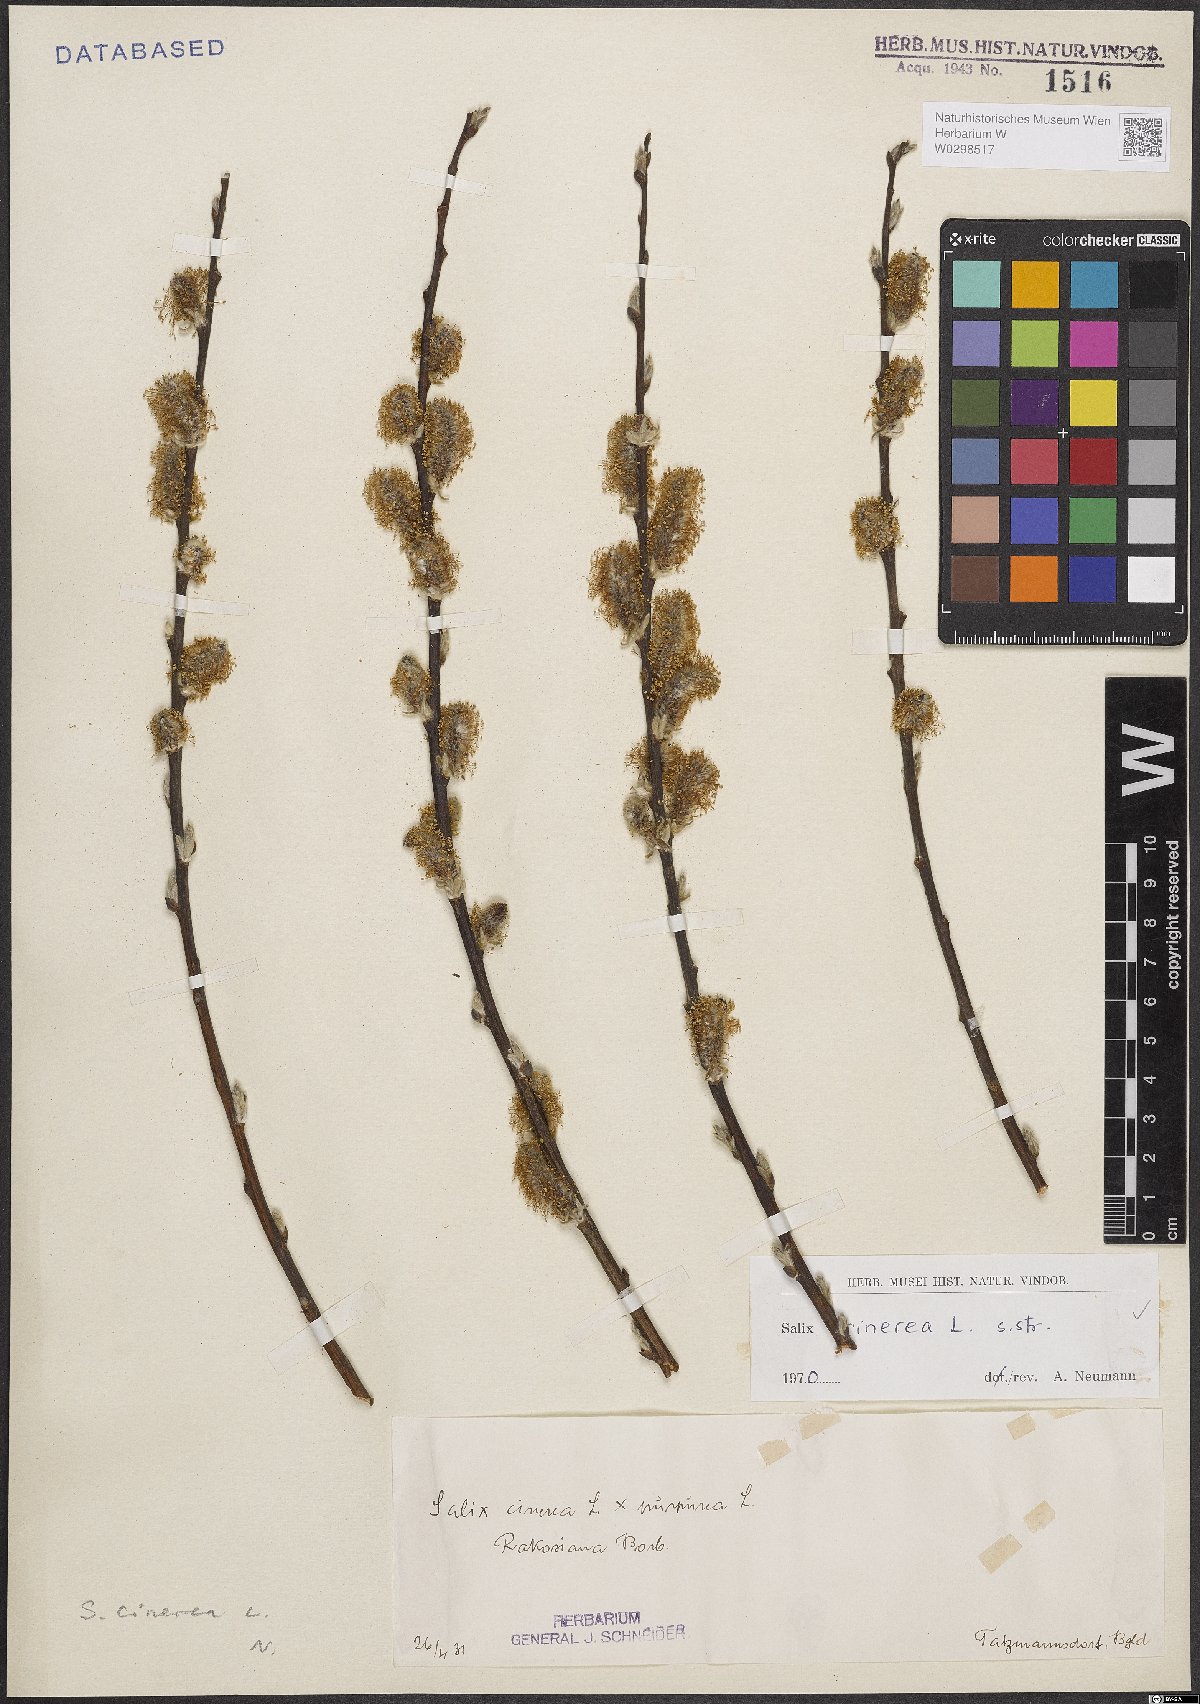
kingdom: Plantae
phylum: Tracheophyta
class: Magnoliopsida
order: Malpighiales
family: Salicaceae
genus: Salix
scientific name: Salix cinerea
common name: Common sallow
